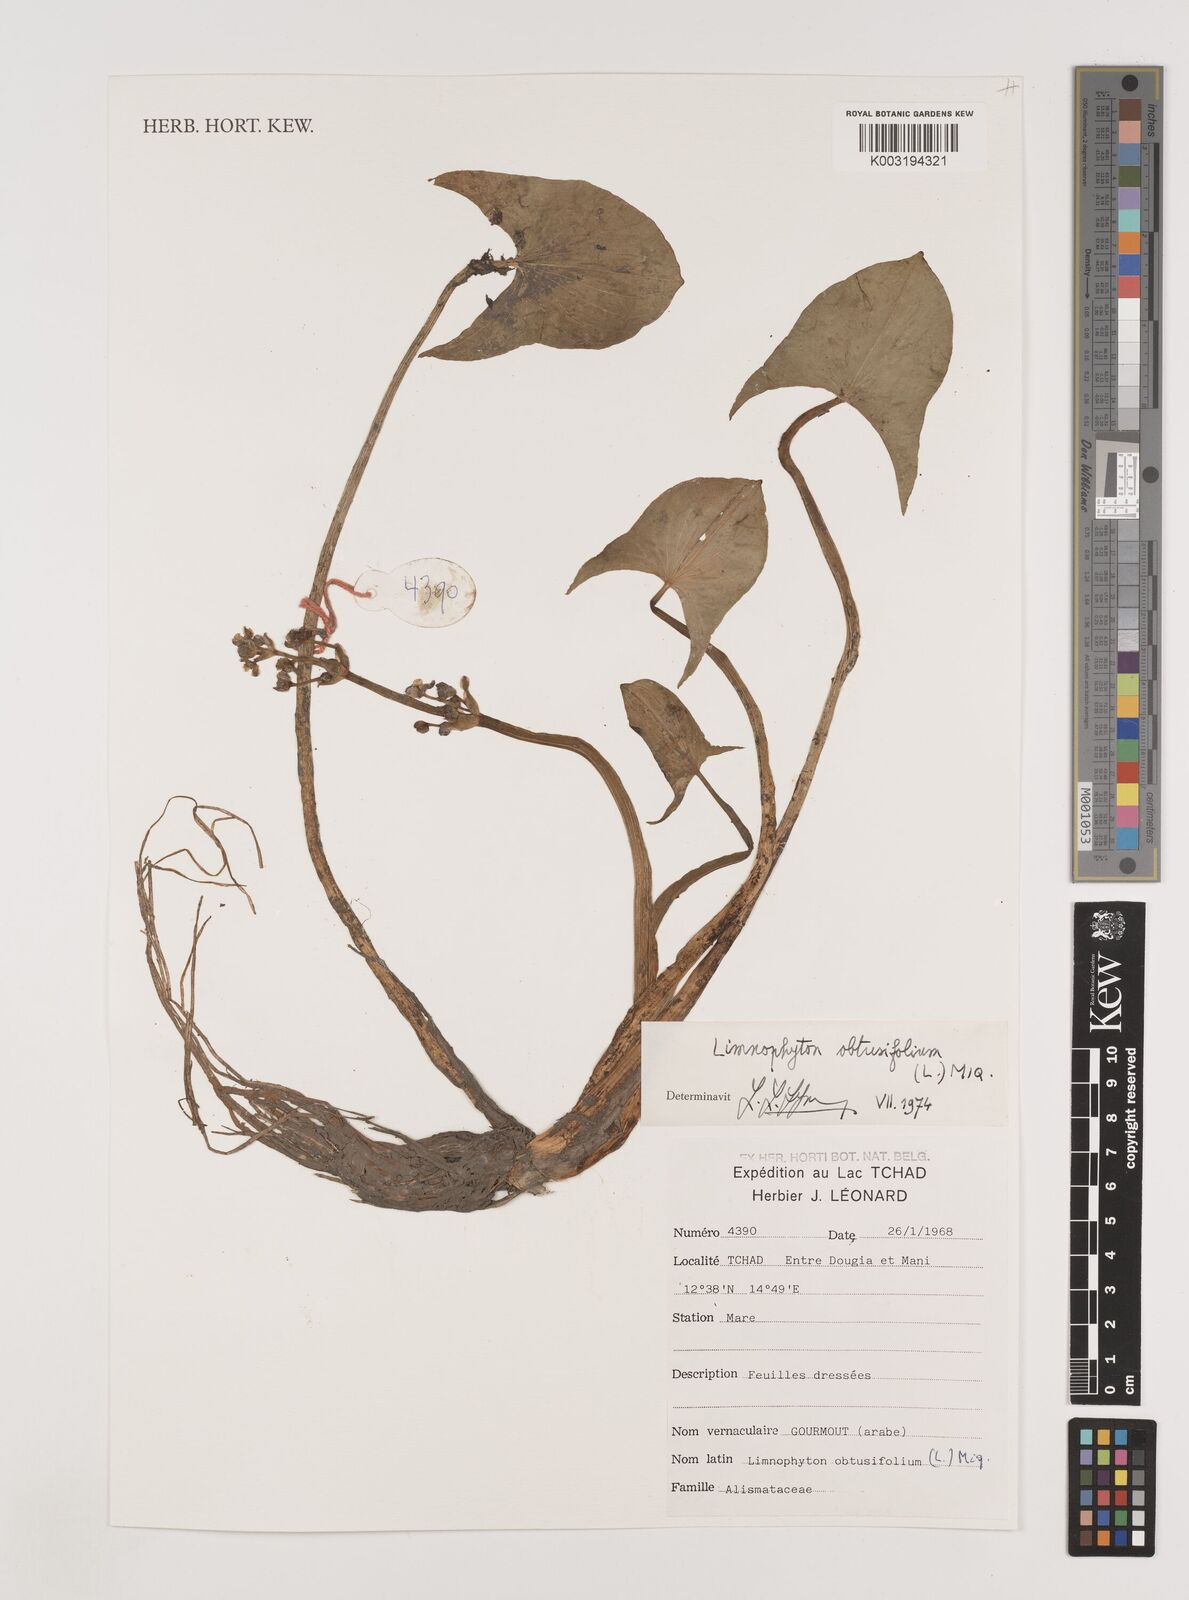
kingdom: Plantae
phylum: Tracheophyta
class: Liliopsida
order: Alismatales
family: Alismataceae
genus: Limnophyton
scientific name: Limnophyton obtusifolium
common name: Arrow head
